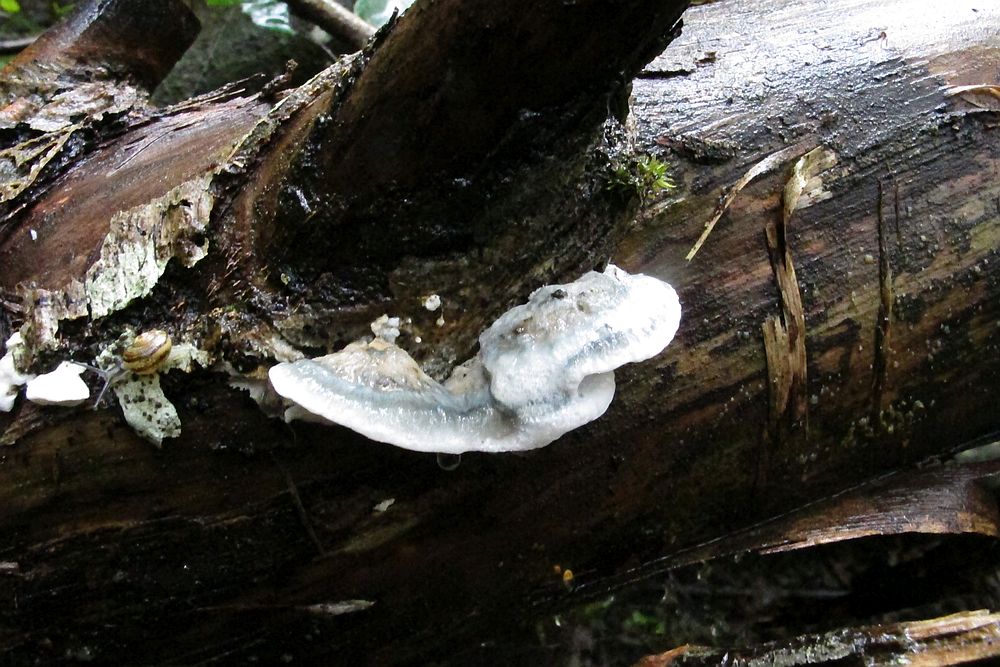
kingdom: Fungi
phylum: Basidiomycota
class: Agaricomycetes
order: Polyporales
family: Polyporaceae
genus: Cyanosporus
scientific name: Cyanosporus alni
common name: blegblå kødporesvamp
